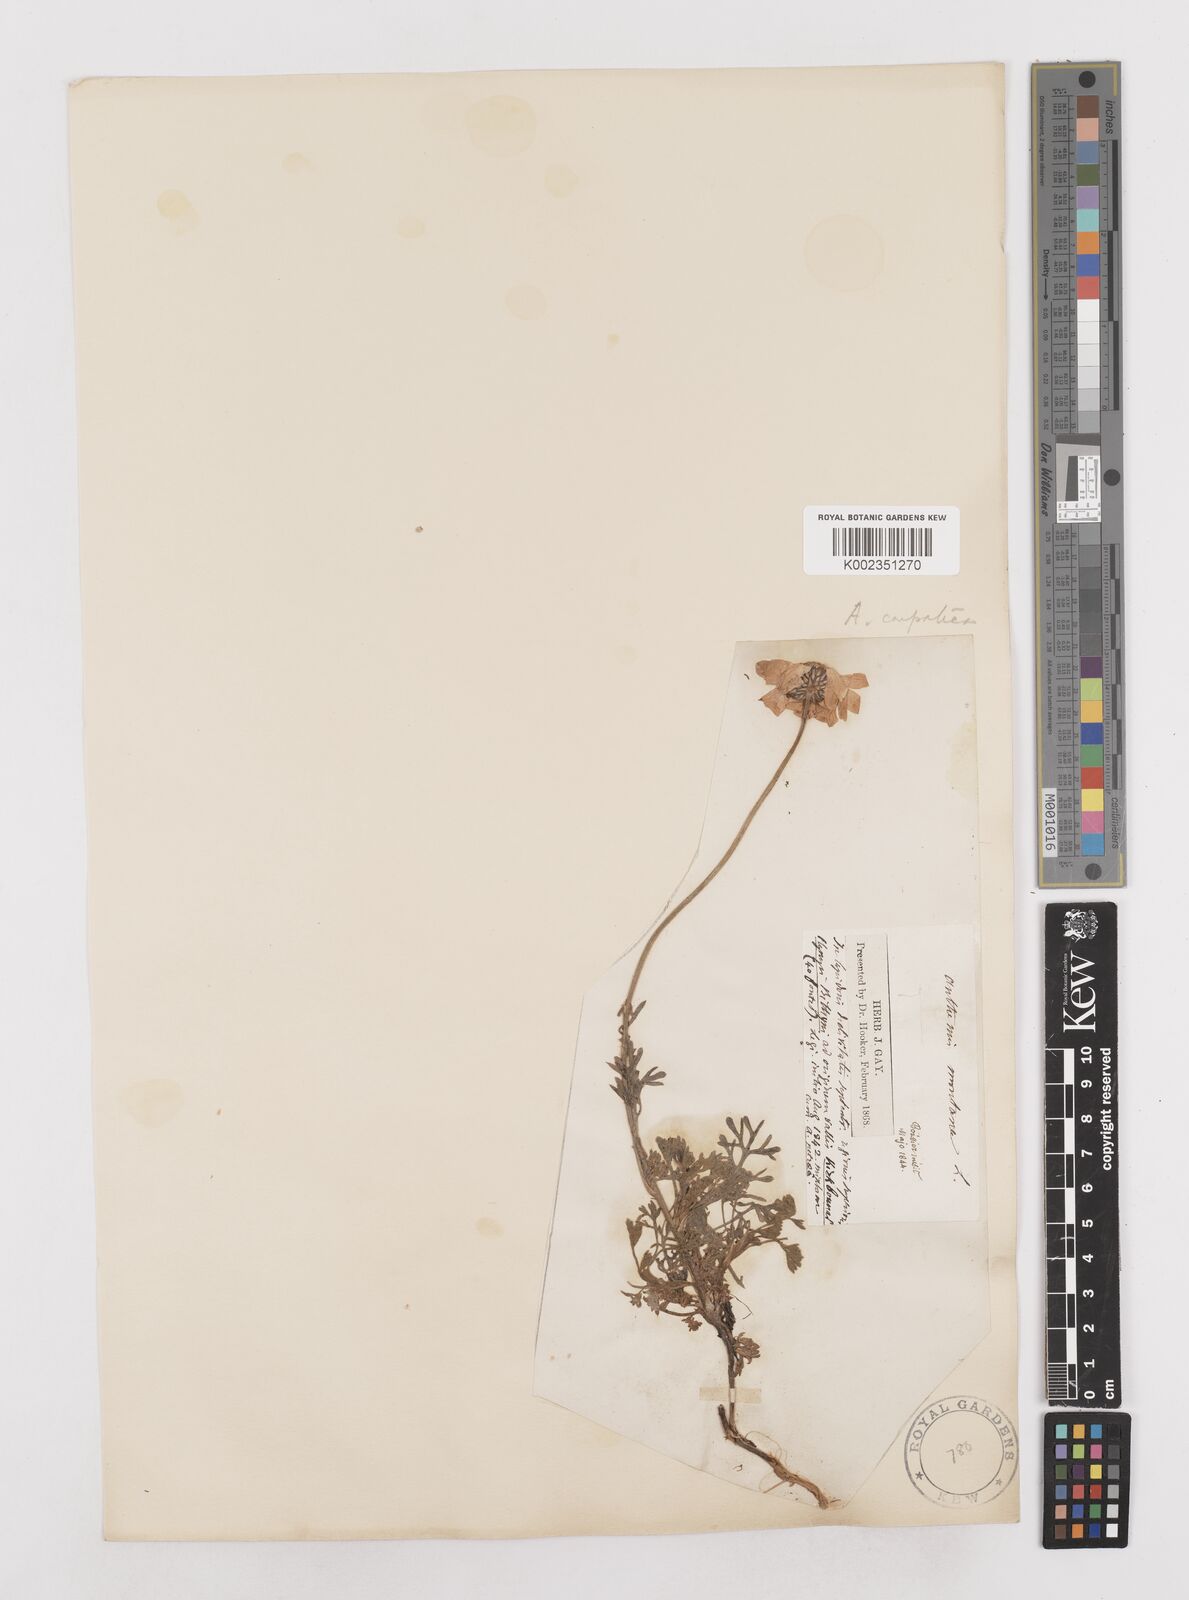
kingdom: Plantae
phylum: Tracheophyta
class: Magnoliopsida
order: Asterales
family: Asteraceae
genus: Anthemis
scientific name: Anthemis cretica
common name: Mountain dog-daisy
